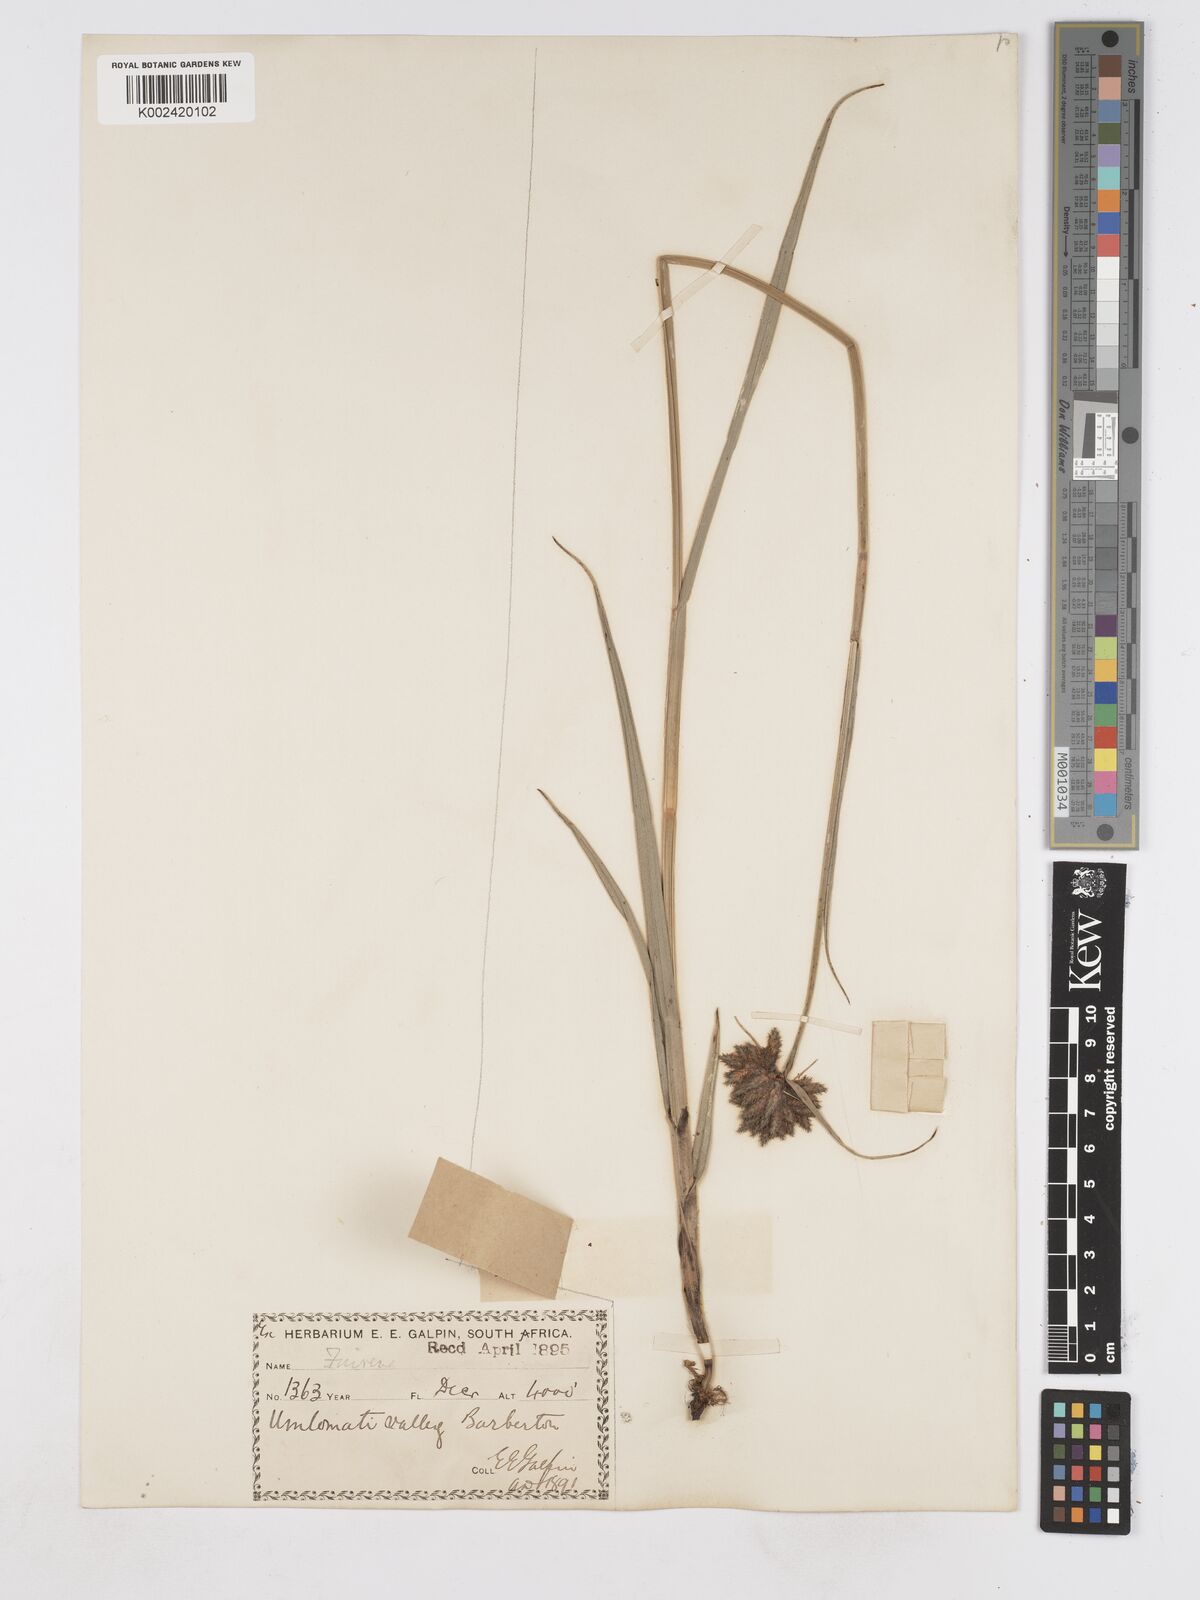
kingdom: Plantae
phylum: Tracheophyta
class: Liliopsida
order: Poales
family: Cyperaceae
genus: Fuirena
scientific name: Fuirena pubescens
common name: Hairy sedge
